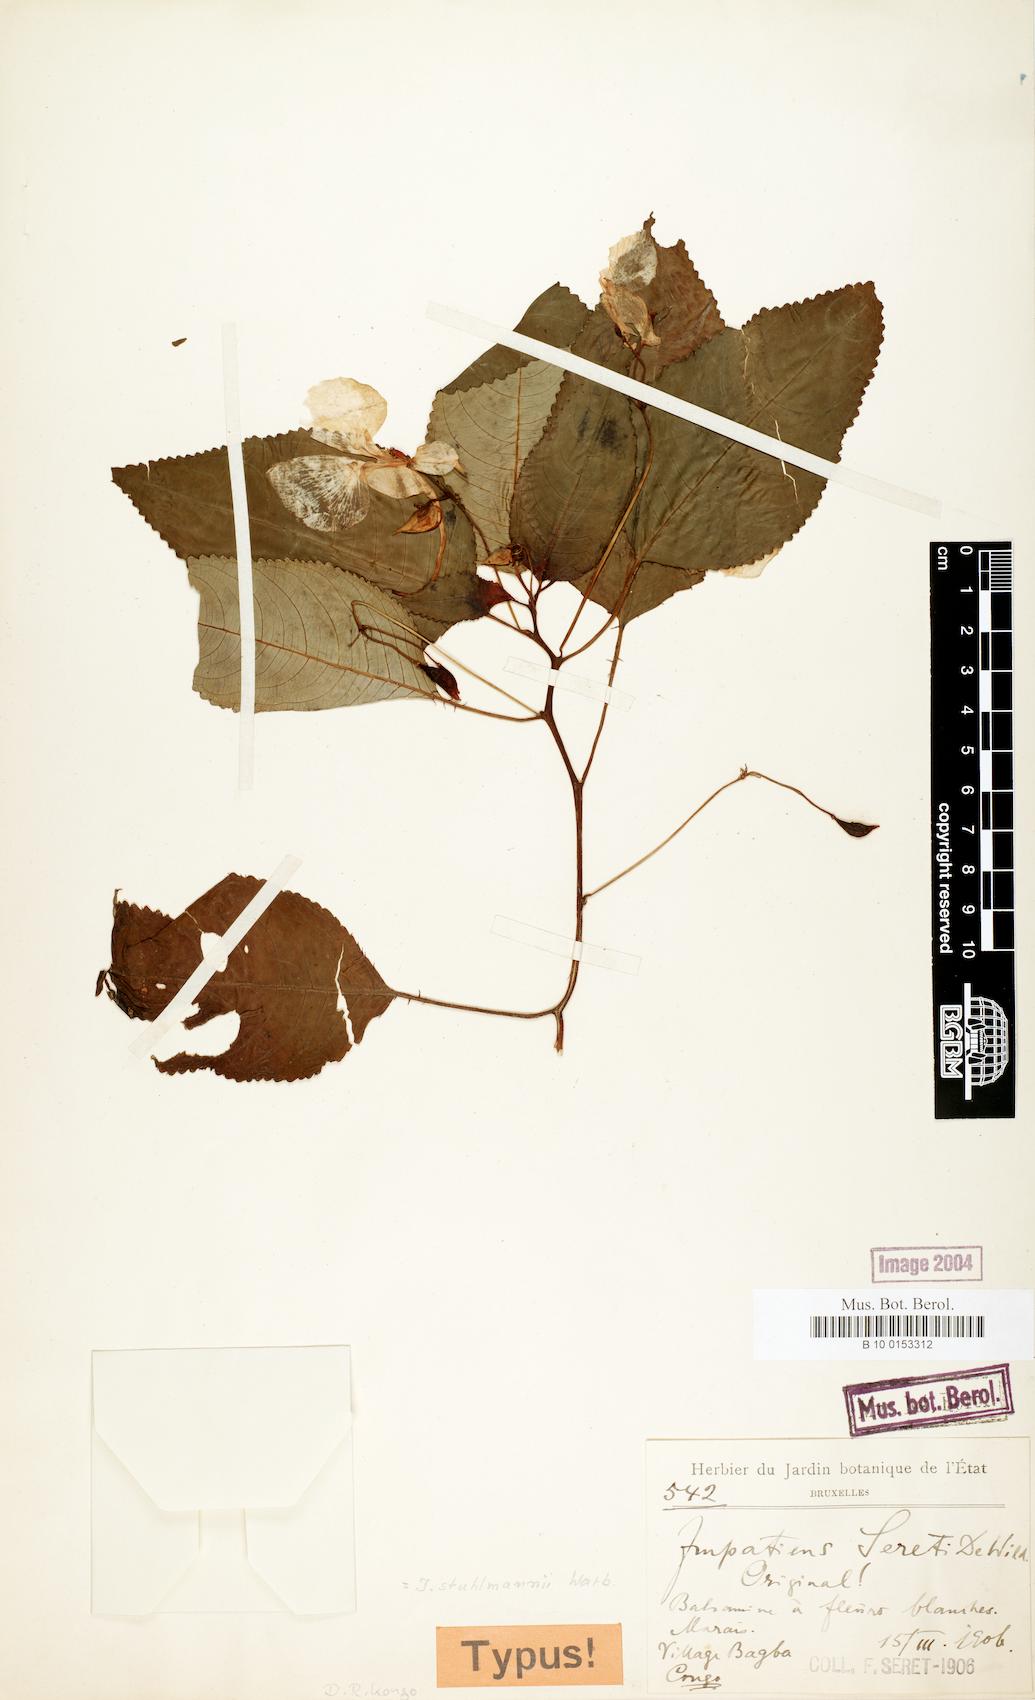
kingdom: Plantae
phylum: Tracheophyta
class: Magnoliopsida
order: Ericales
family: Balsaminaceae
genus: Impatiens
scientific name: Impatiens stuhlmannii
